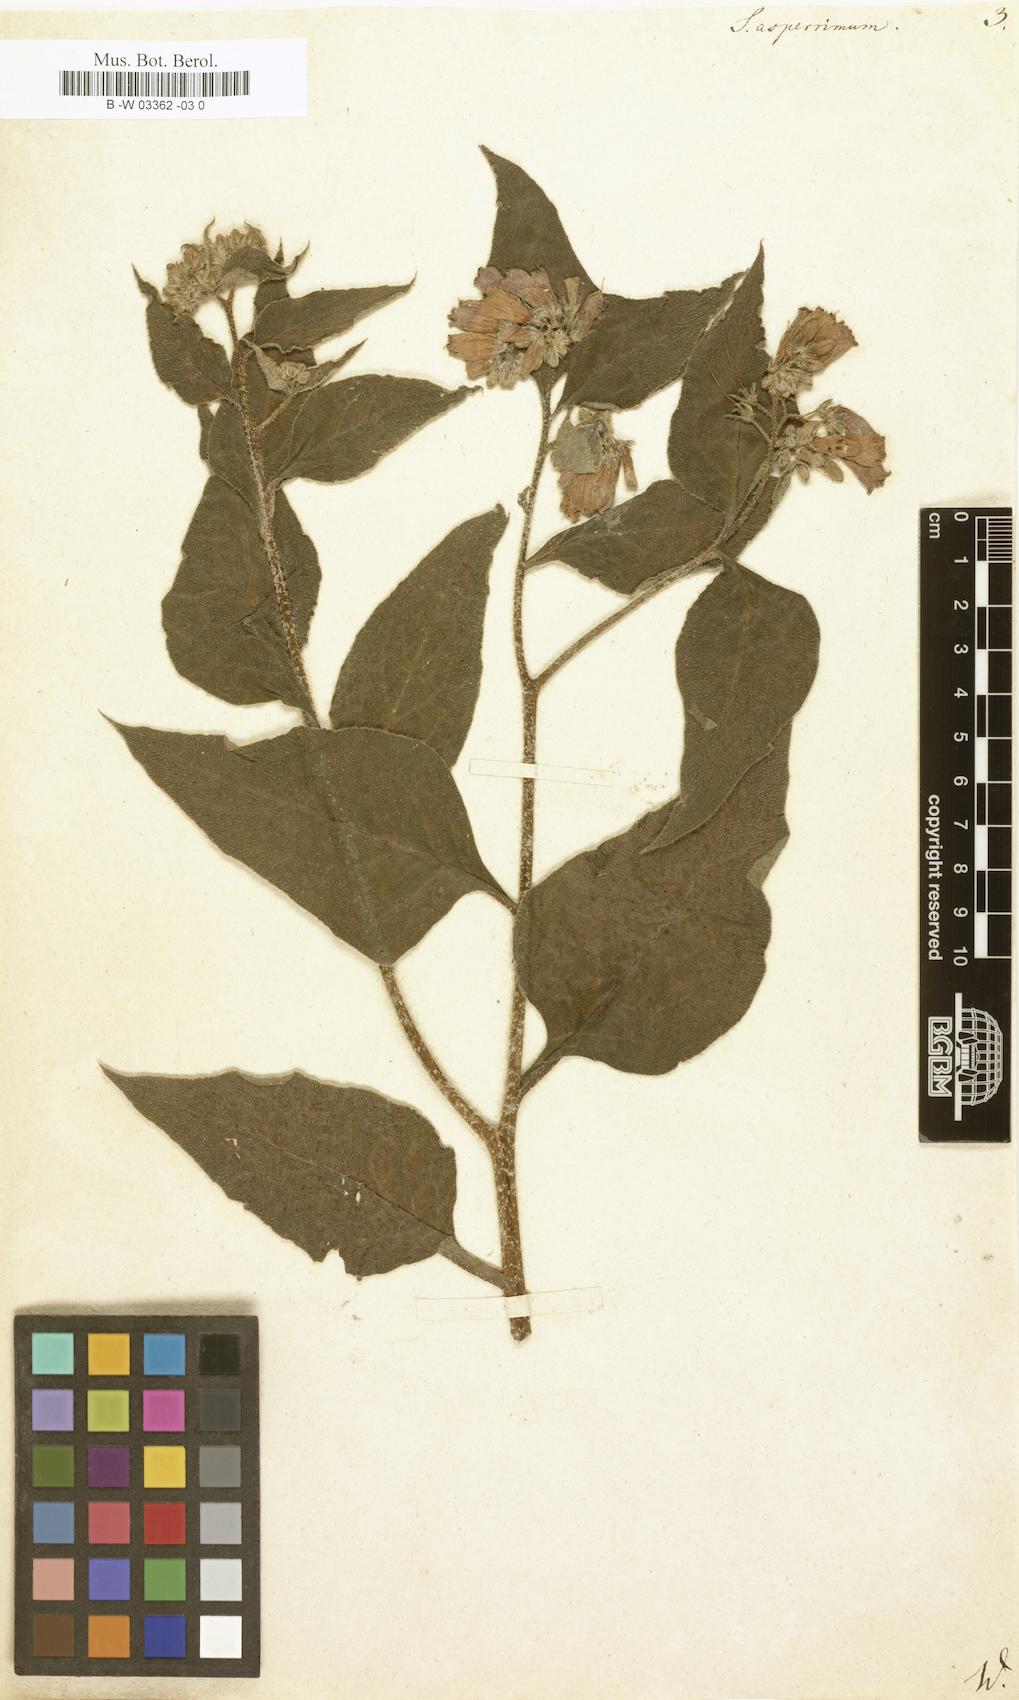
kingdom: Plantae
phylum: Tracheophyta
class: Magnoliopsida
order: Boraginales
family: Boraginaceae
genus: Symphytum
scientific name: Symphytum asperum
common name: Prickly comfrey
